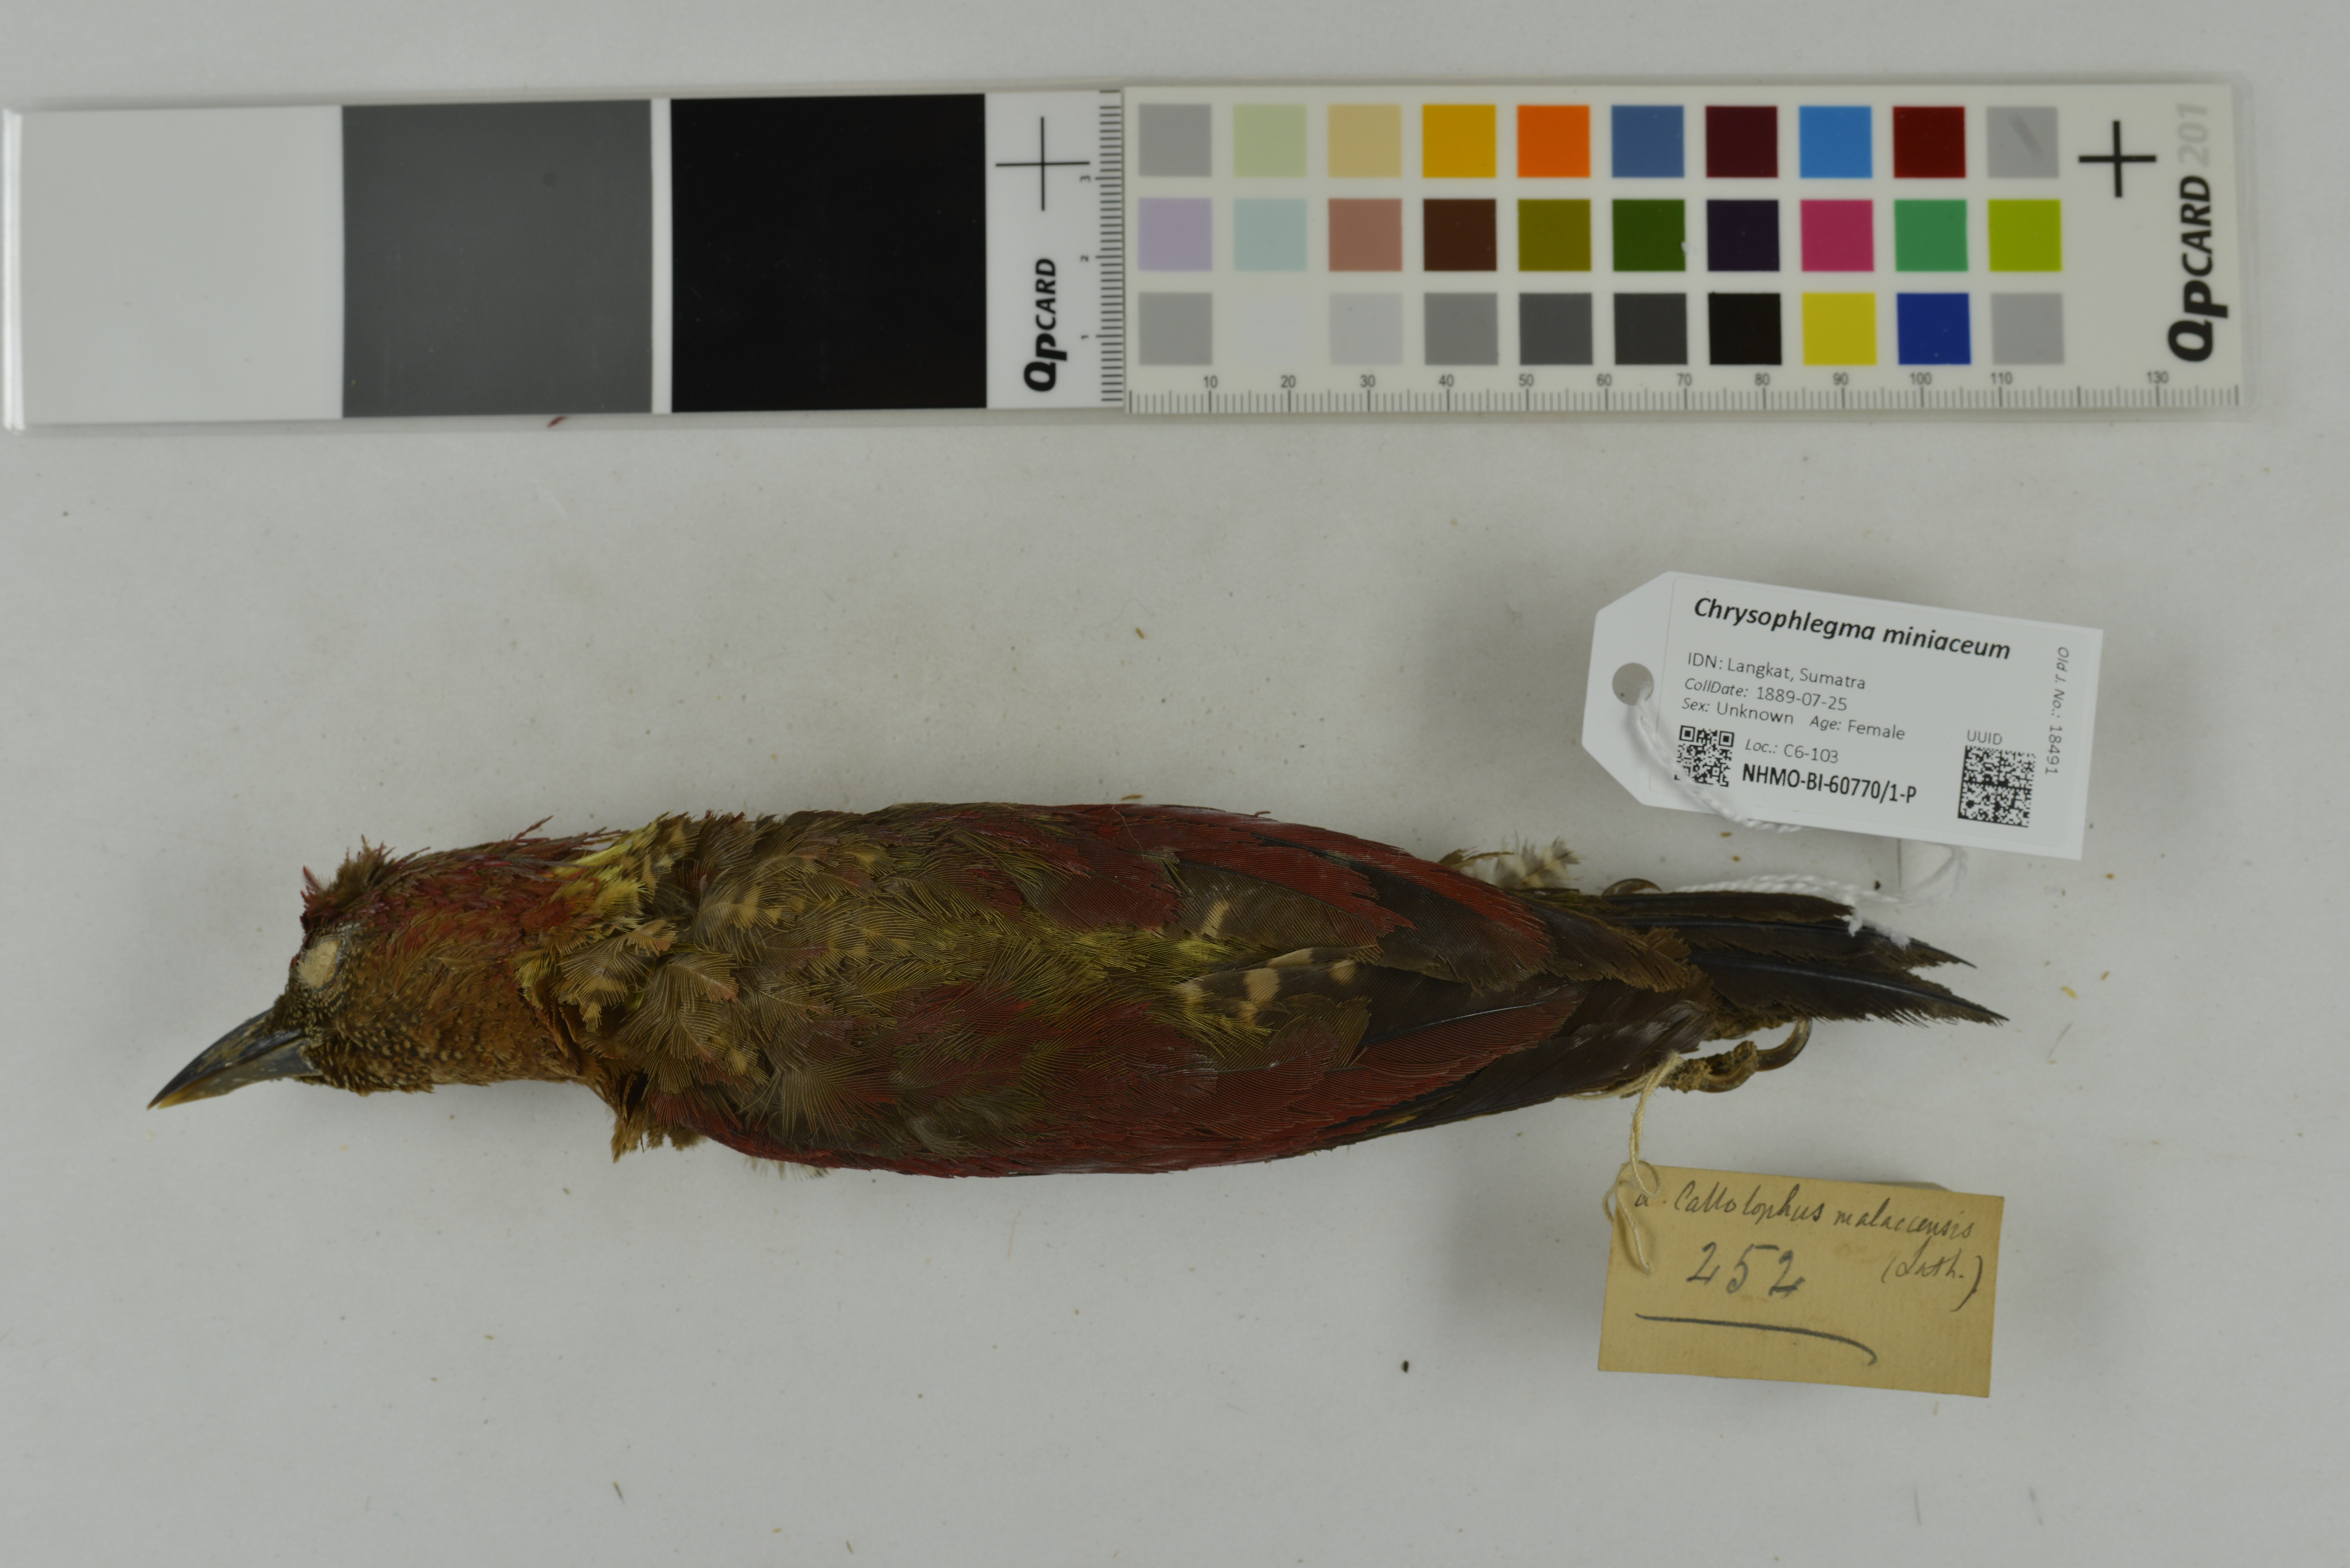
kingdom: Animalia
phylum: Chordata
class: Aves
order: Piciformes
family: Picidae
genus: Chrysophlegma
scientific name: Chrysophlegma miniaceum
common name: Banded woodpecker
